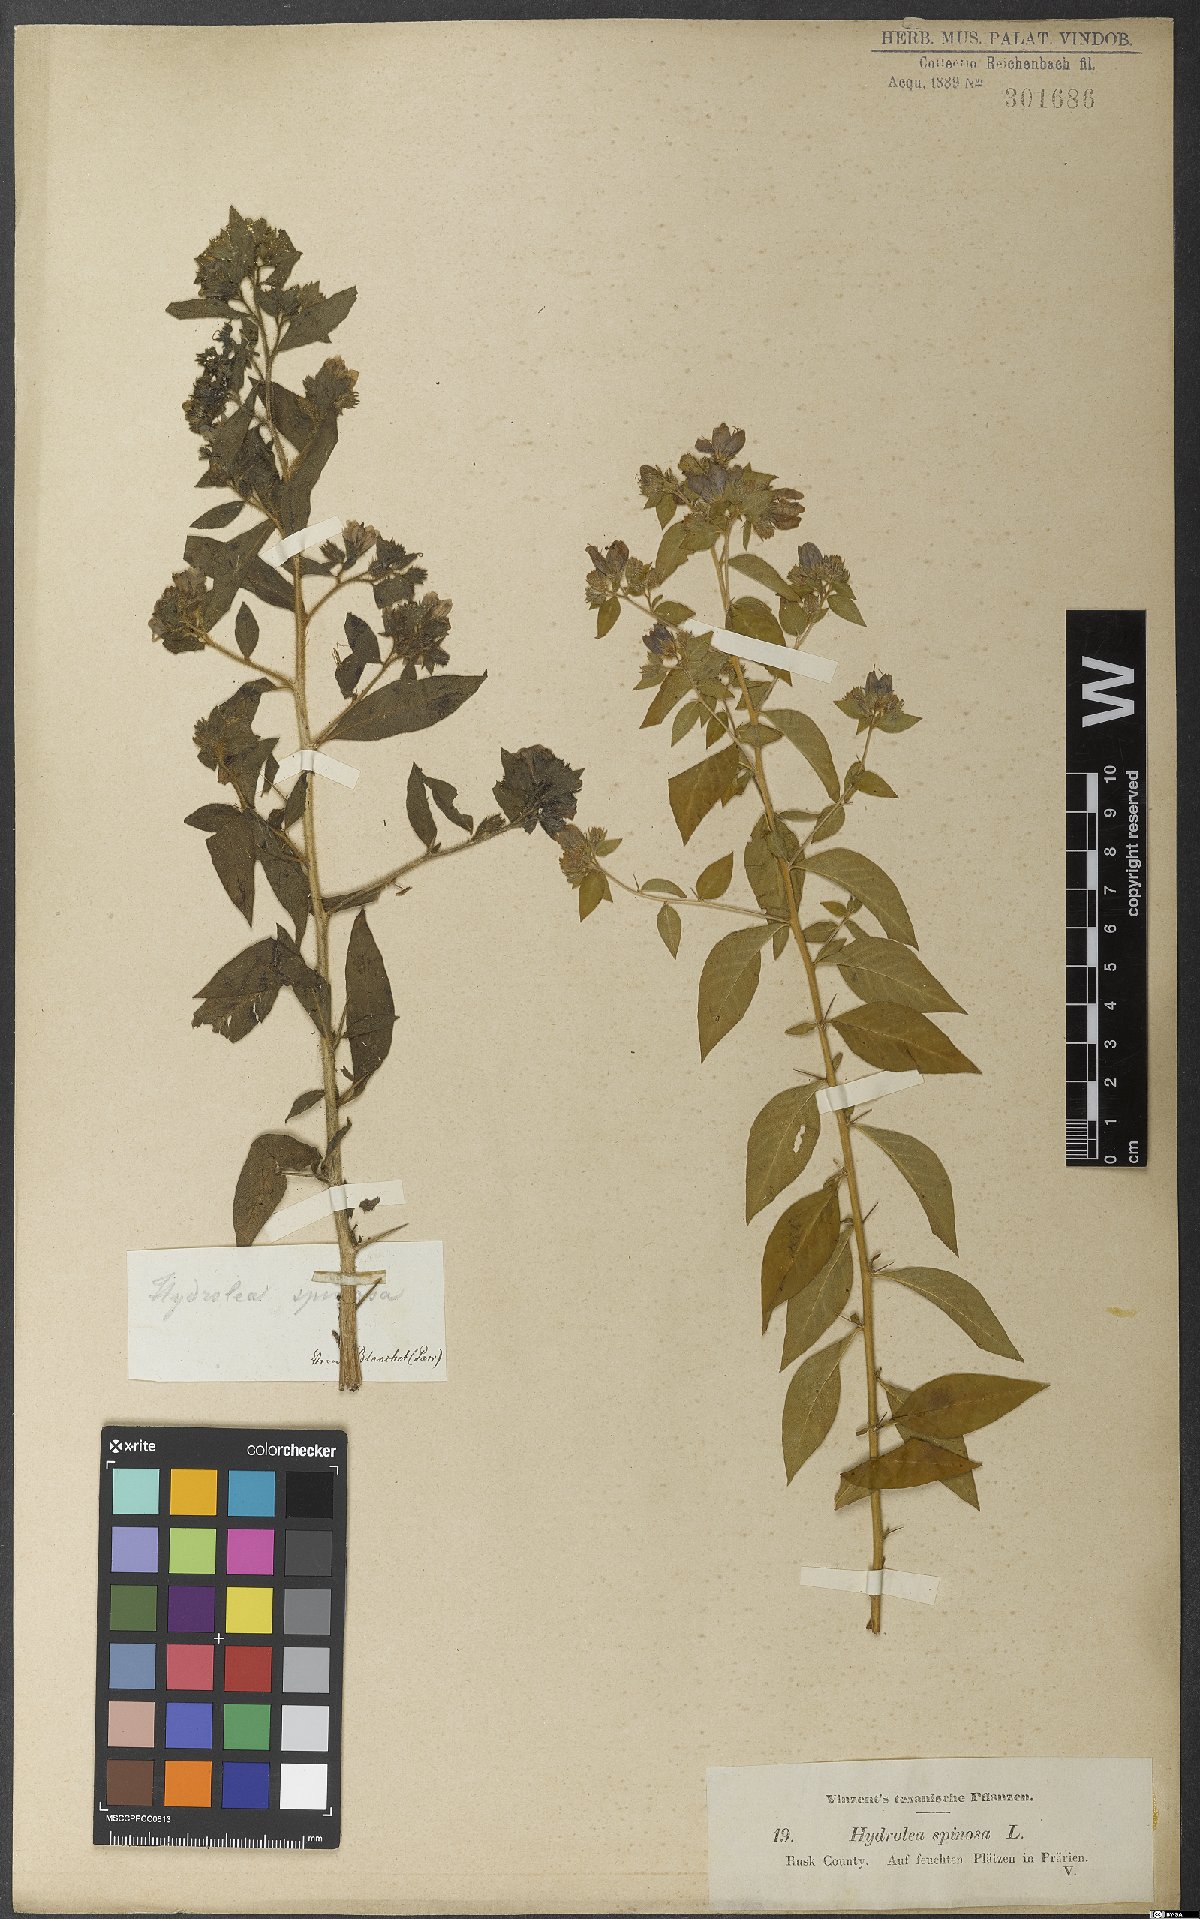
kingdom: Plantae
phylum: Tracheophyta
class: Magnoliopsida
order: Solanales
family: Hydroleaceae
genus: Hydrolea
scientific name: Hydrolea spinosa
